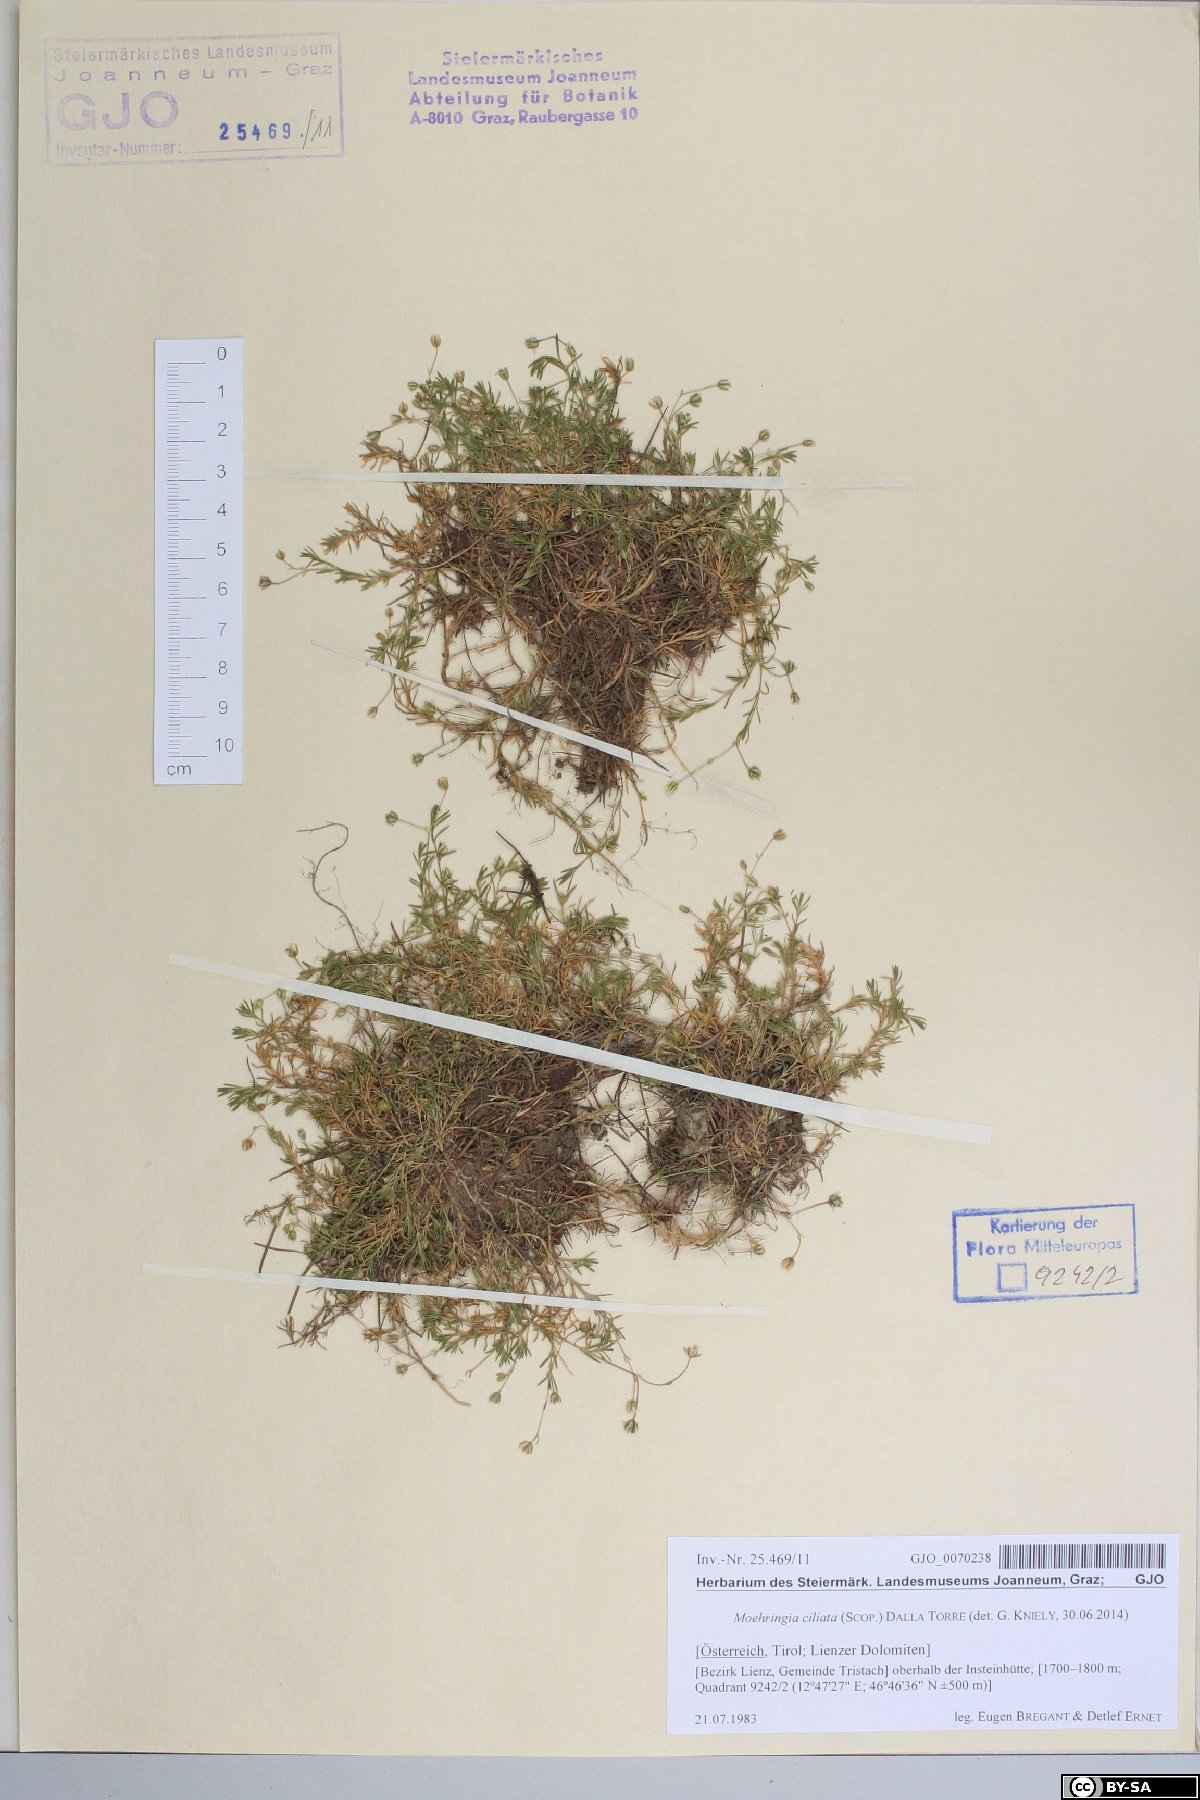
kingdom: Plantae
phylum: Tracheophyta
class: Magnoliopsida
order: Caryophyllales
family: Caryophyllaceae
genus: Moehringia
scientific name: Moehringia ciliata
